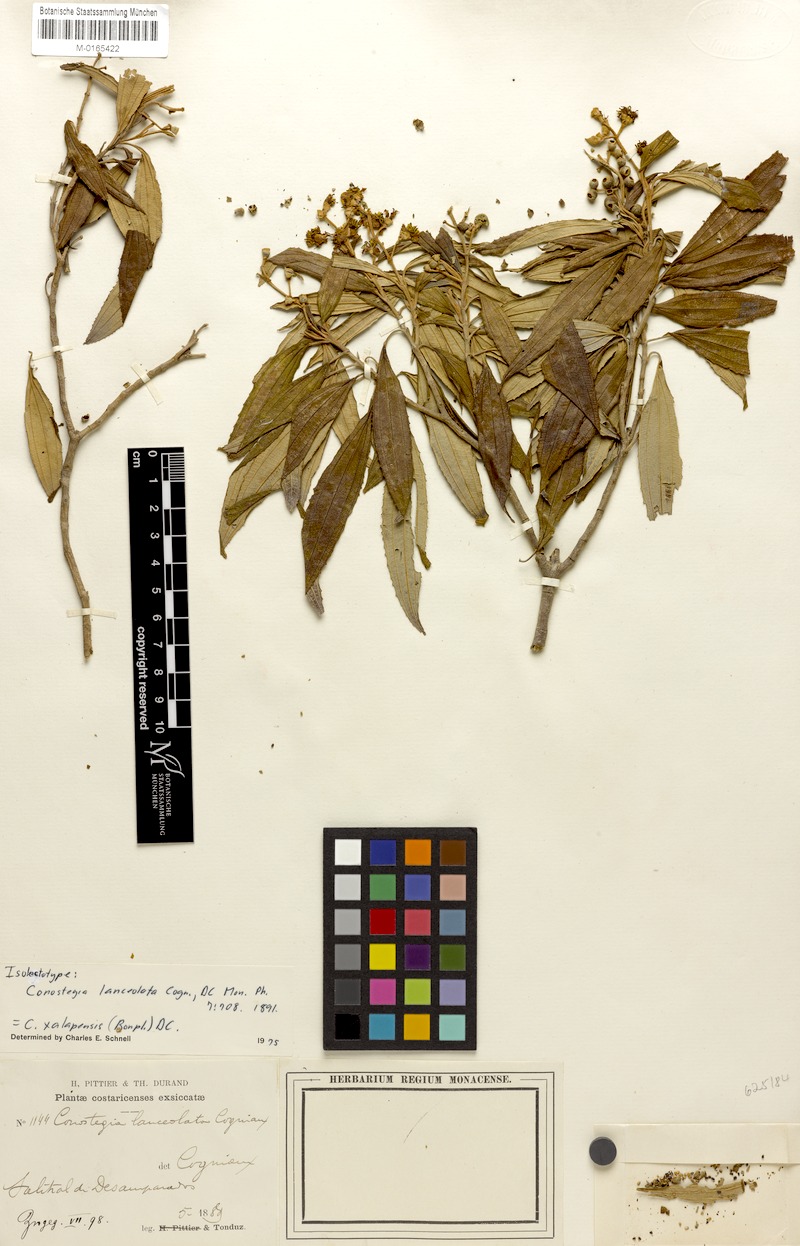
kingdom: Plantae
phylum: Tracheophyta
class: Magnoliopsida
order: Myrtales
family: Melastomataceae
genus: Miconia
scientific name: Miconia xalapensis
